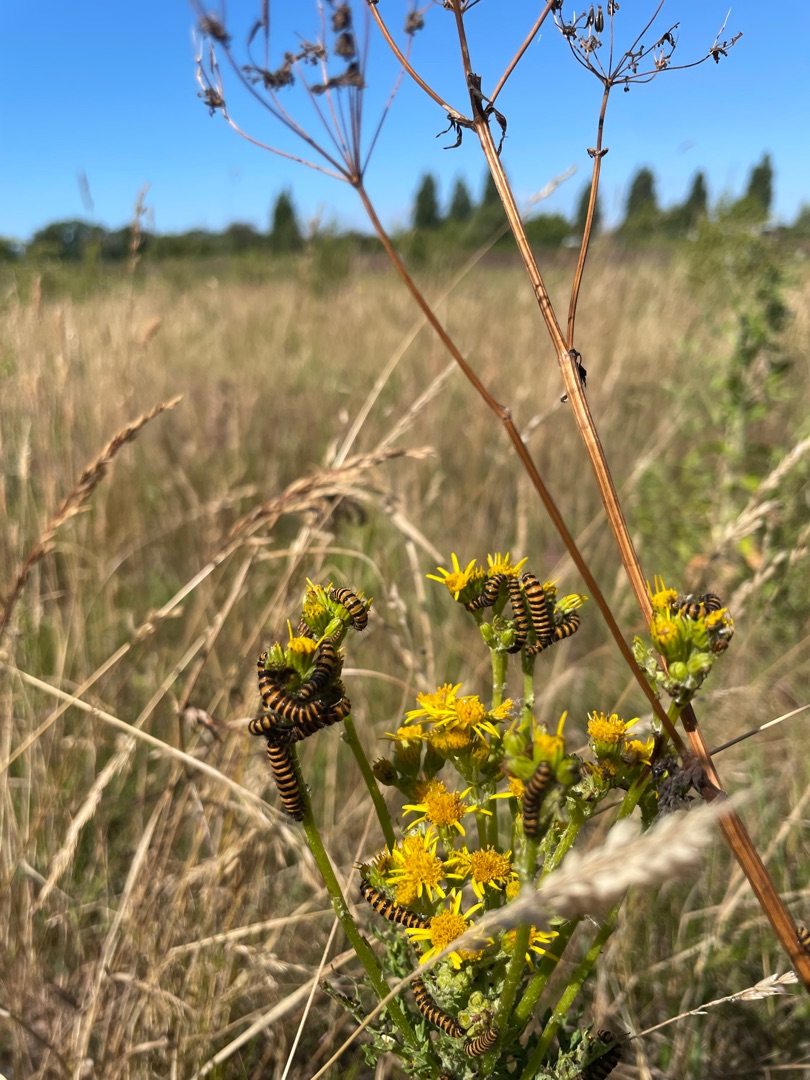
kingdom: Plantae
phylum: Tracheophyta
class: Magnoliopsida
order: Asterales
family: Asteraceae
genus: Jacobaea
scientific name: Jacobaea vulgaris
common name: Eng-brandbæger
